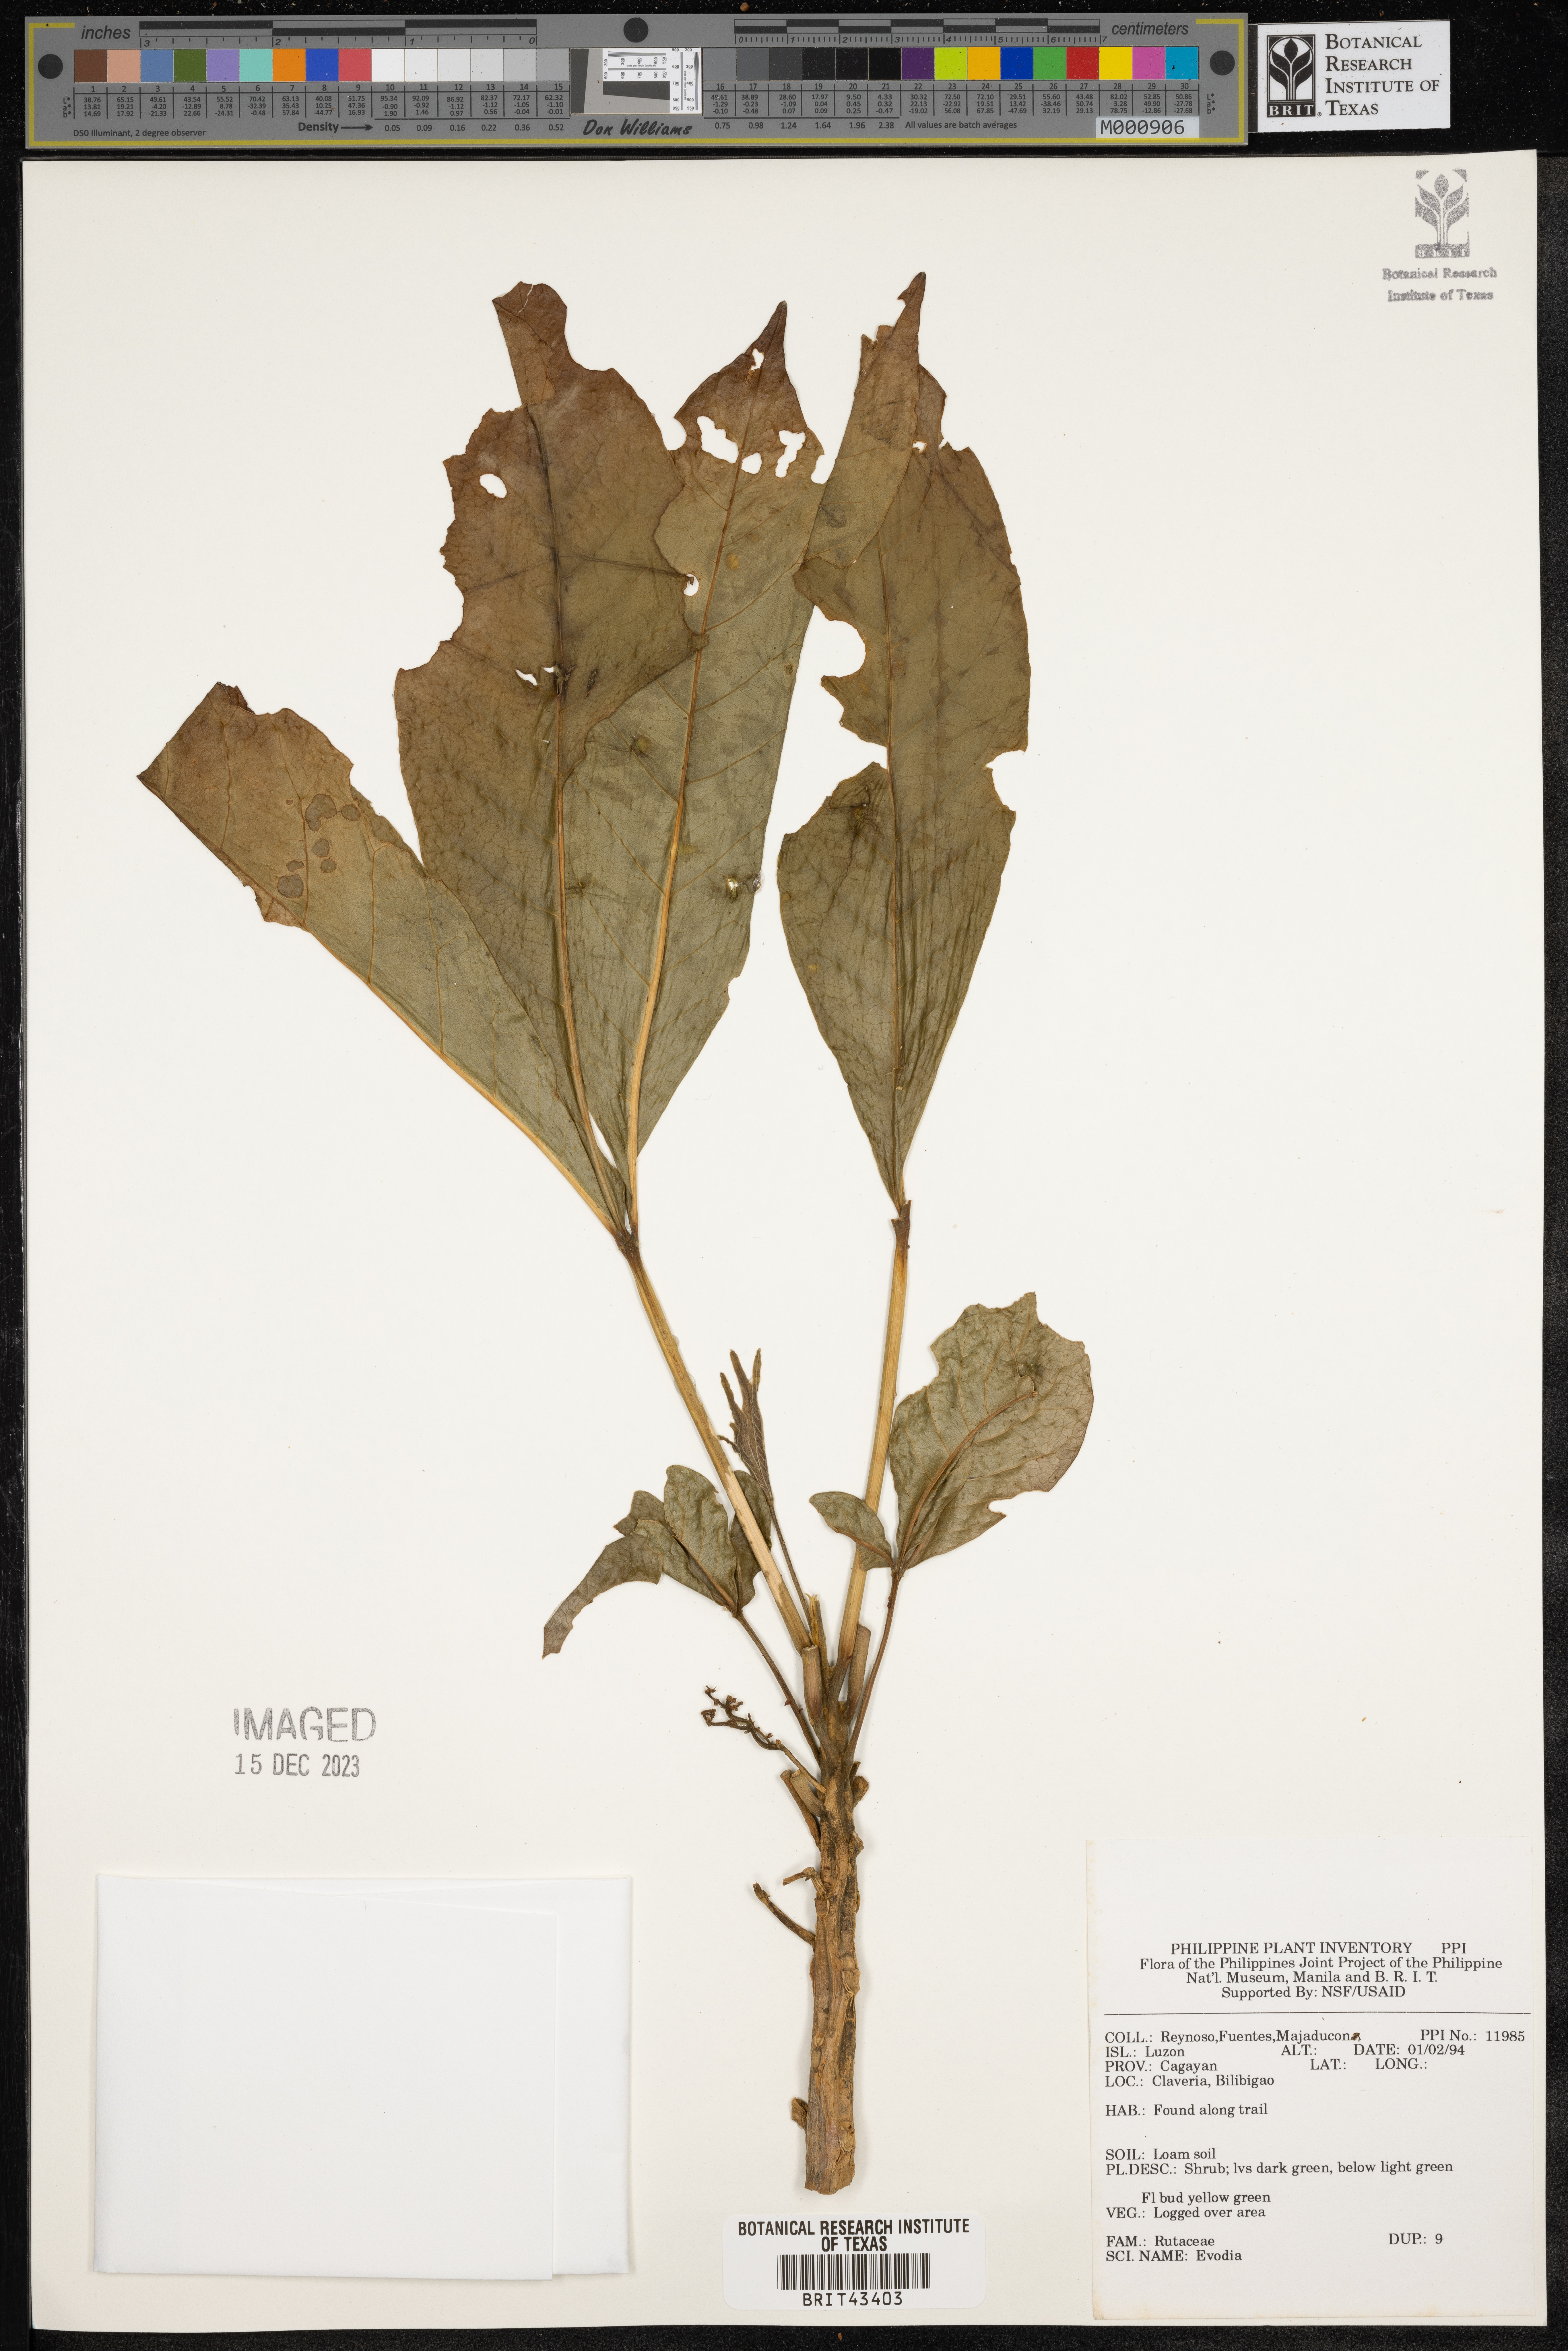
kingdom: Plantae
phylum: Tracheophyta
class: Magnoliopsida
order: Sapindales
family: Rutaceae
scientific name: Rutaceae
